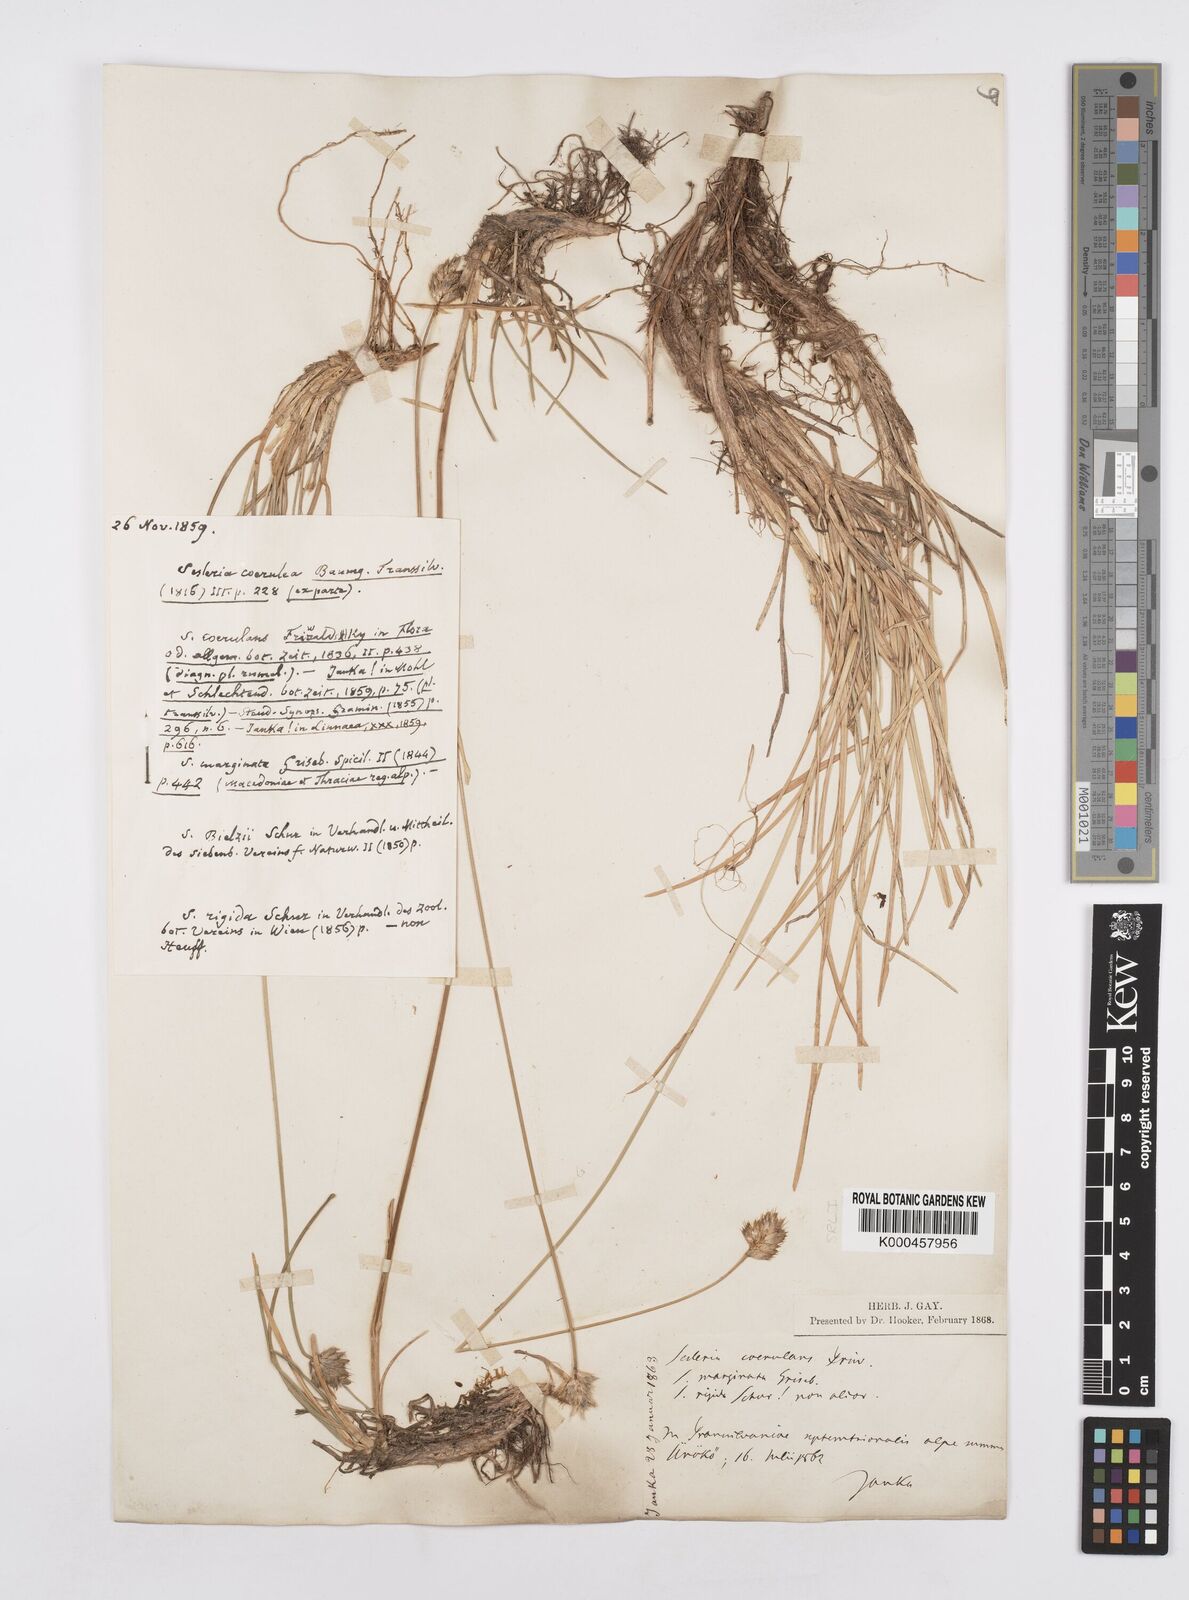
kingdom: Plantae
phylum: Tracheophyta
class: Liliopsida
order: Poales
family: Poaceae
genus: Sesleria
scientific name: Sesleria coerulans
